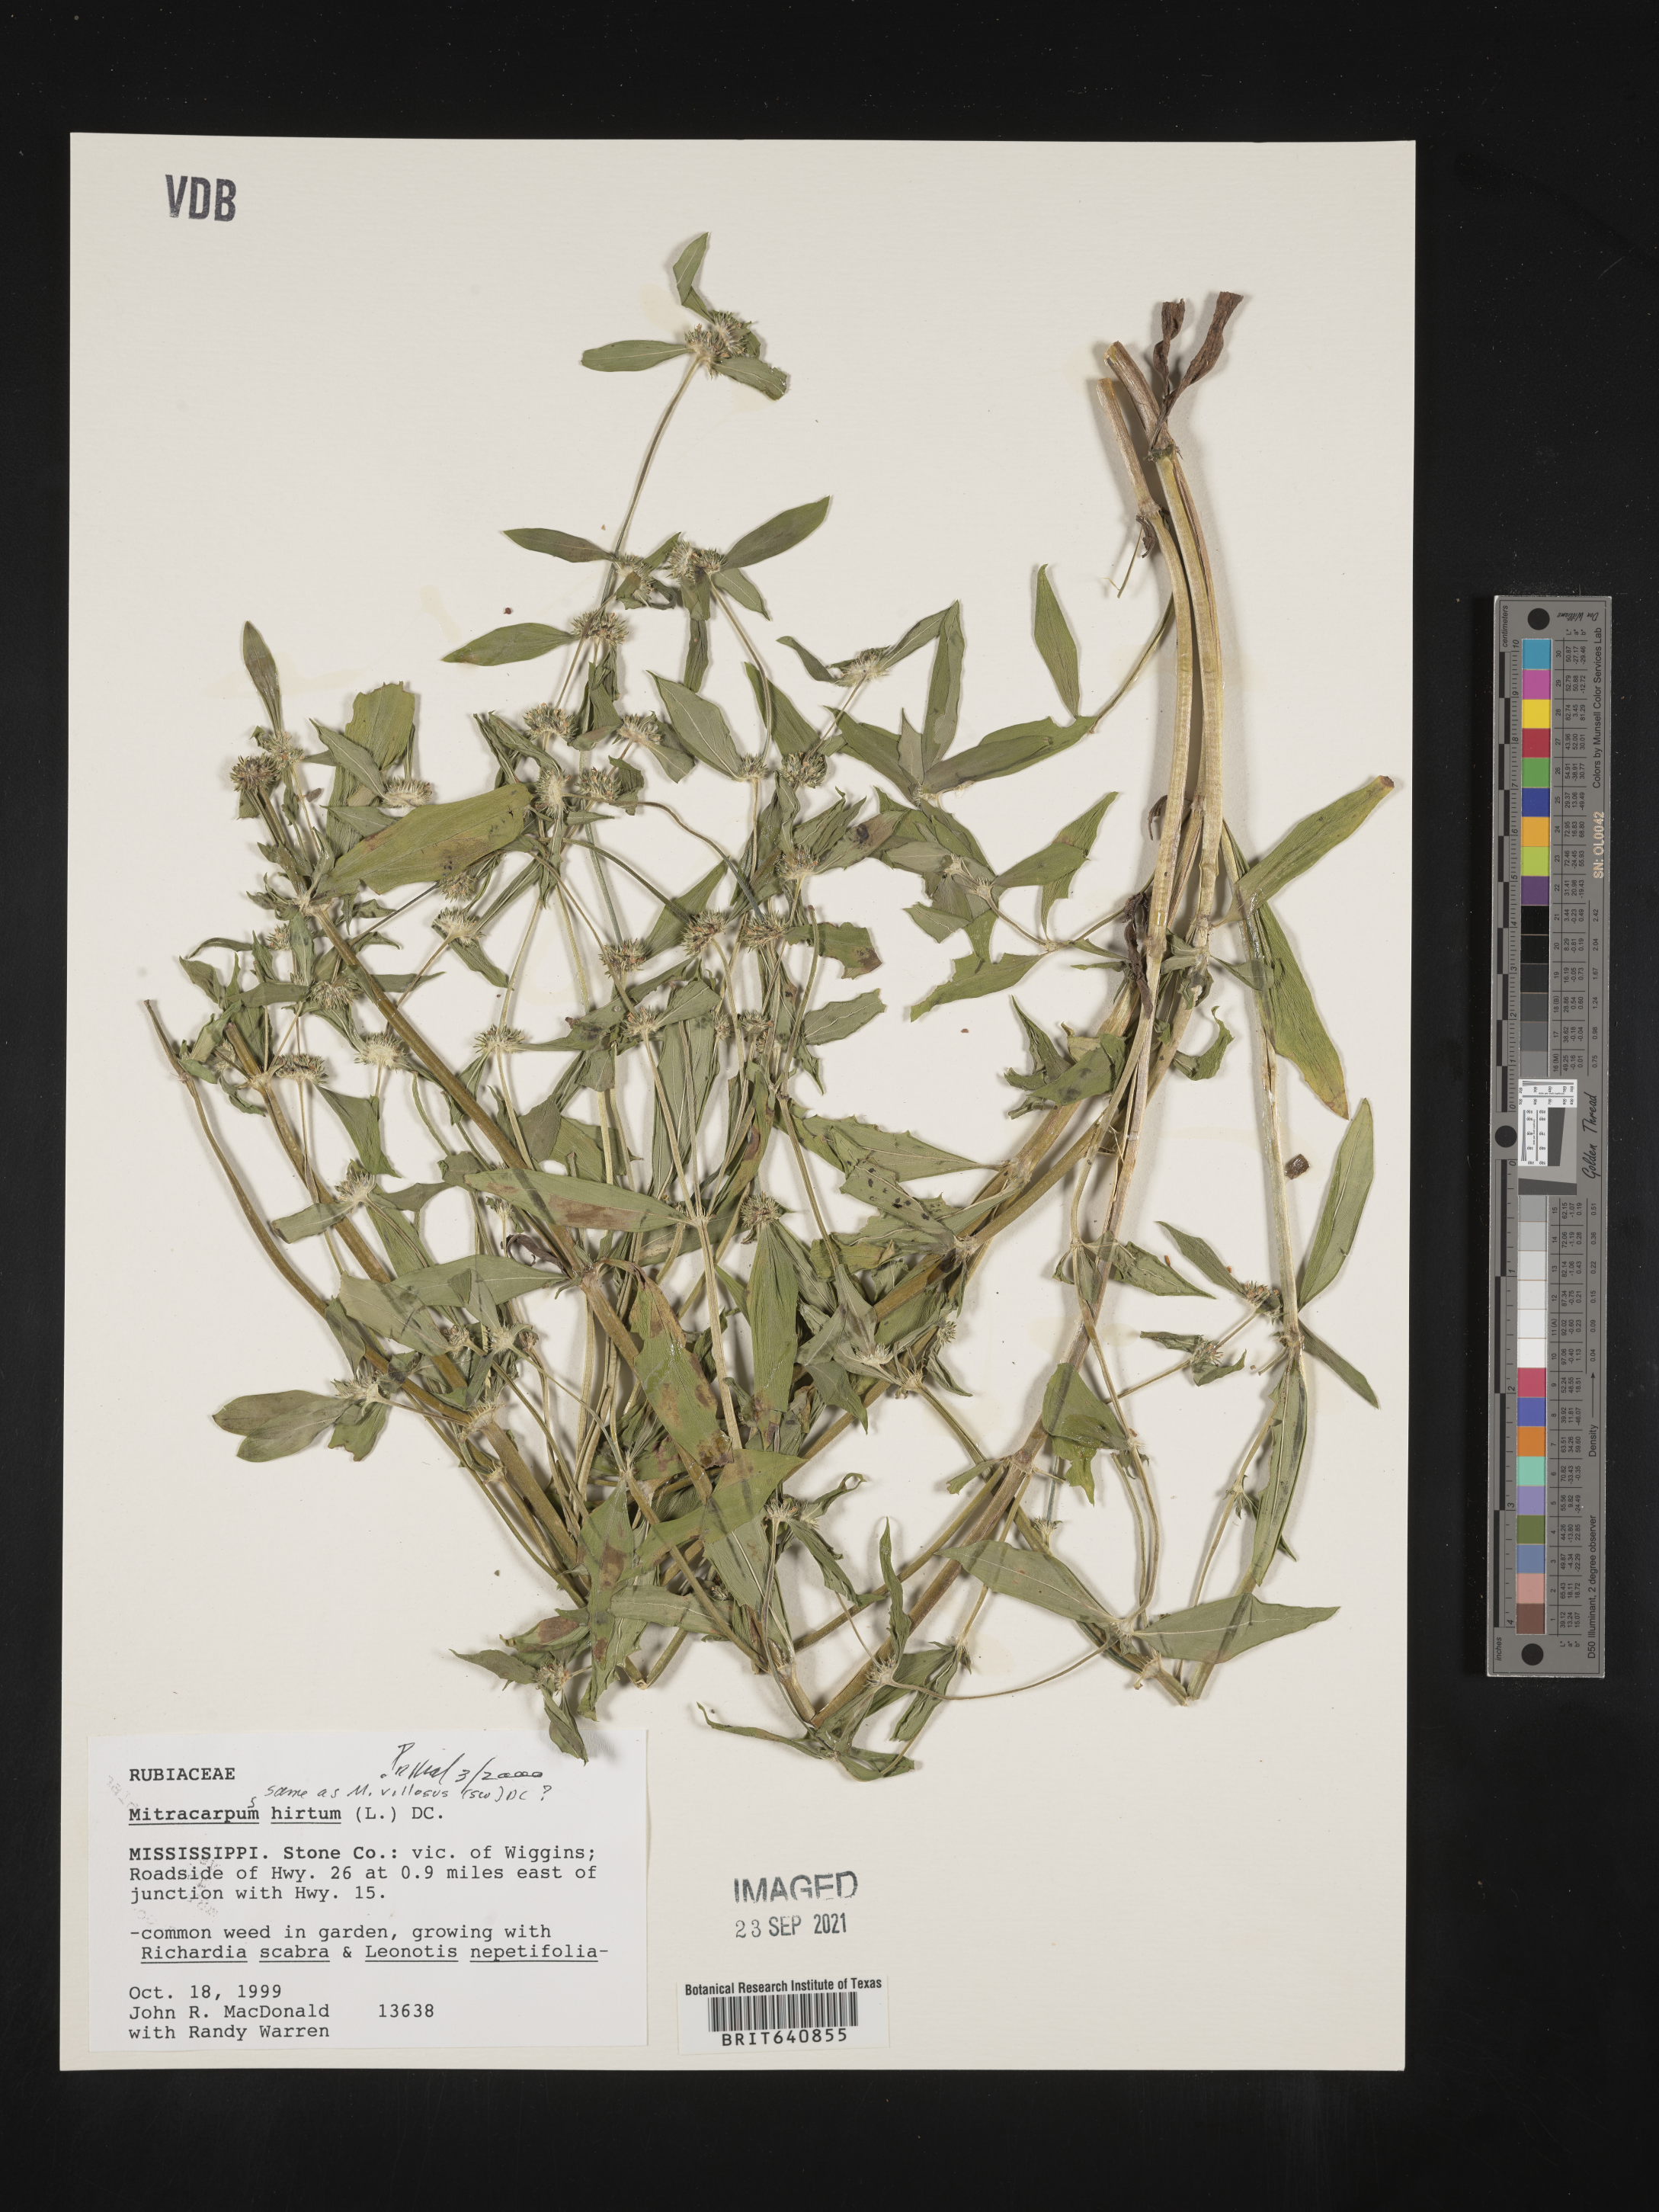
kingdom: Plantae
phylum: Tracheophyta
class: Magnoliopsida
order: Gentianales
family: Rubiaceae
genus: Mitracarpus
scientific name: Mitracarpus hirtus
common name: Tropical girdlepod
